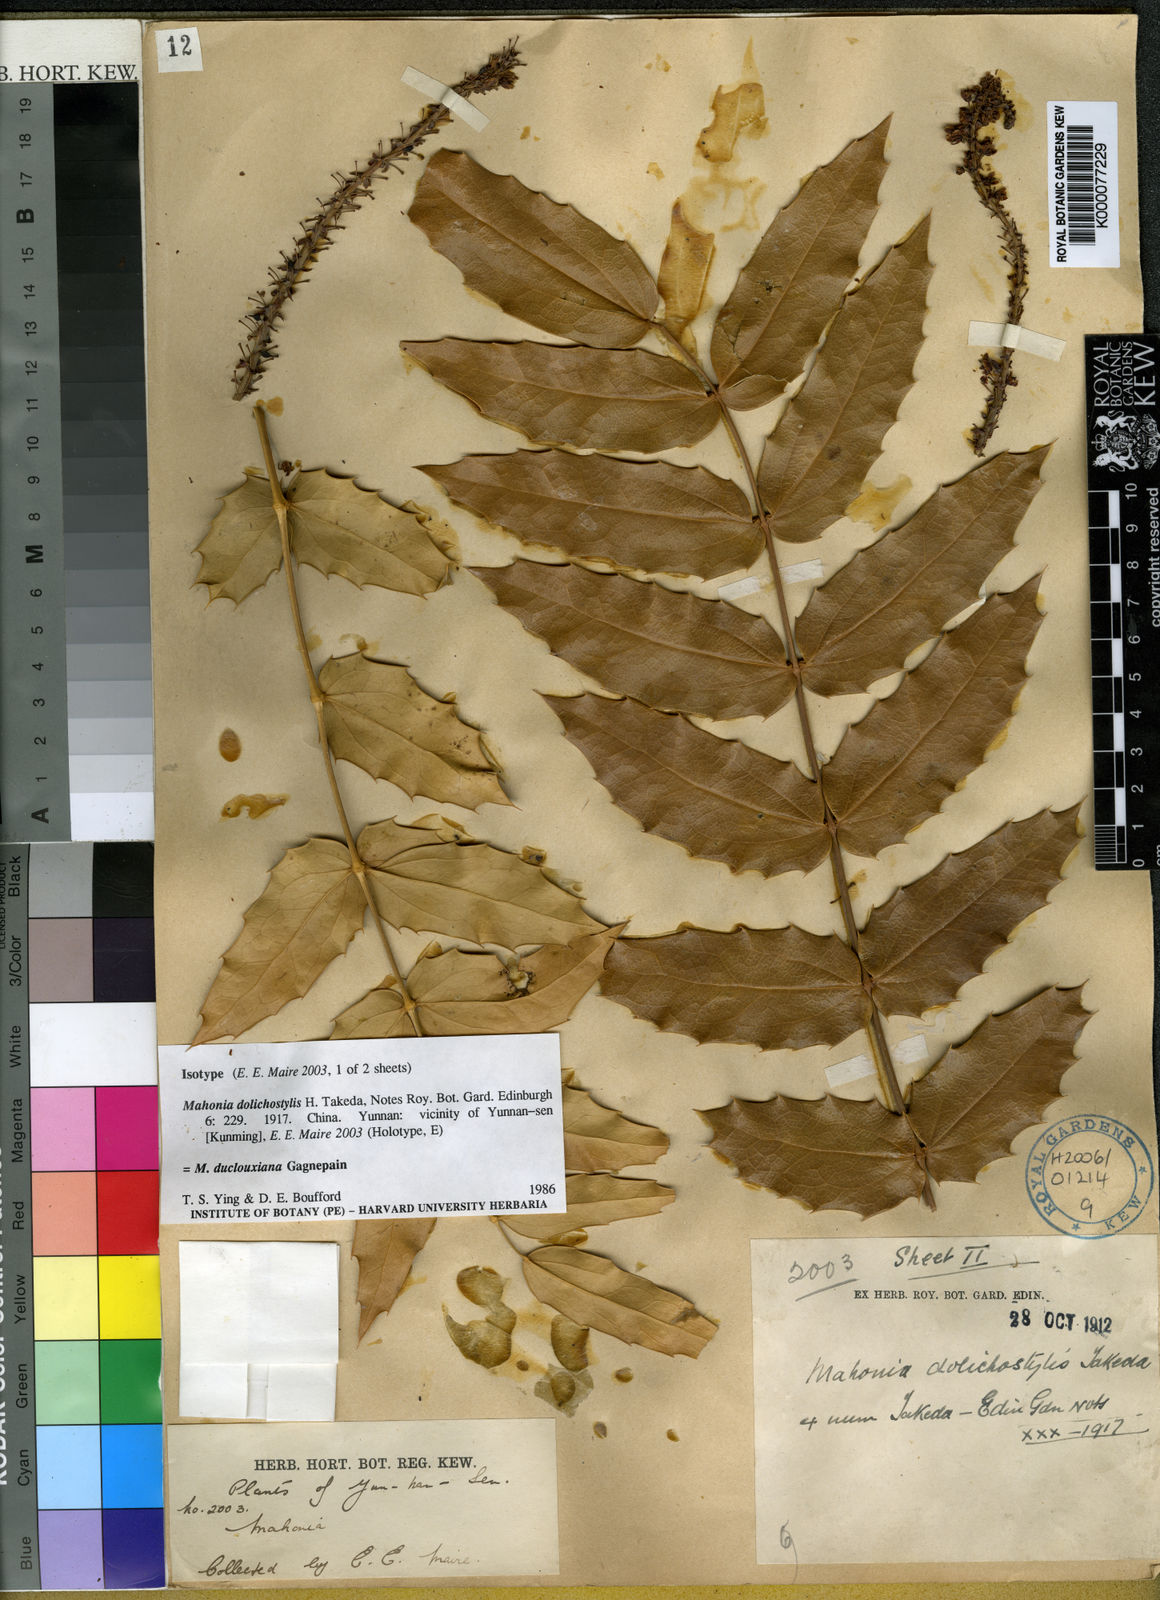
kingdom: Plantae
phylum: Tracheophyta
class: Magnoliopsida
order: Ranunculales
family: Berberidaceae
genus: Mahonia
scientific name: Mahonia napaulensis
